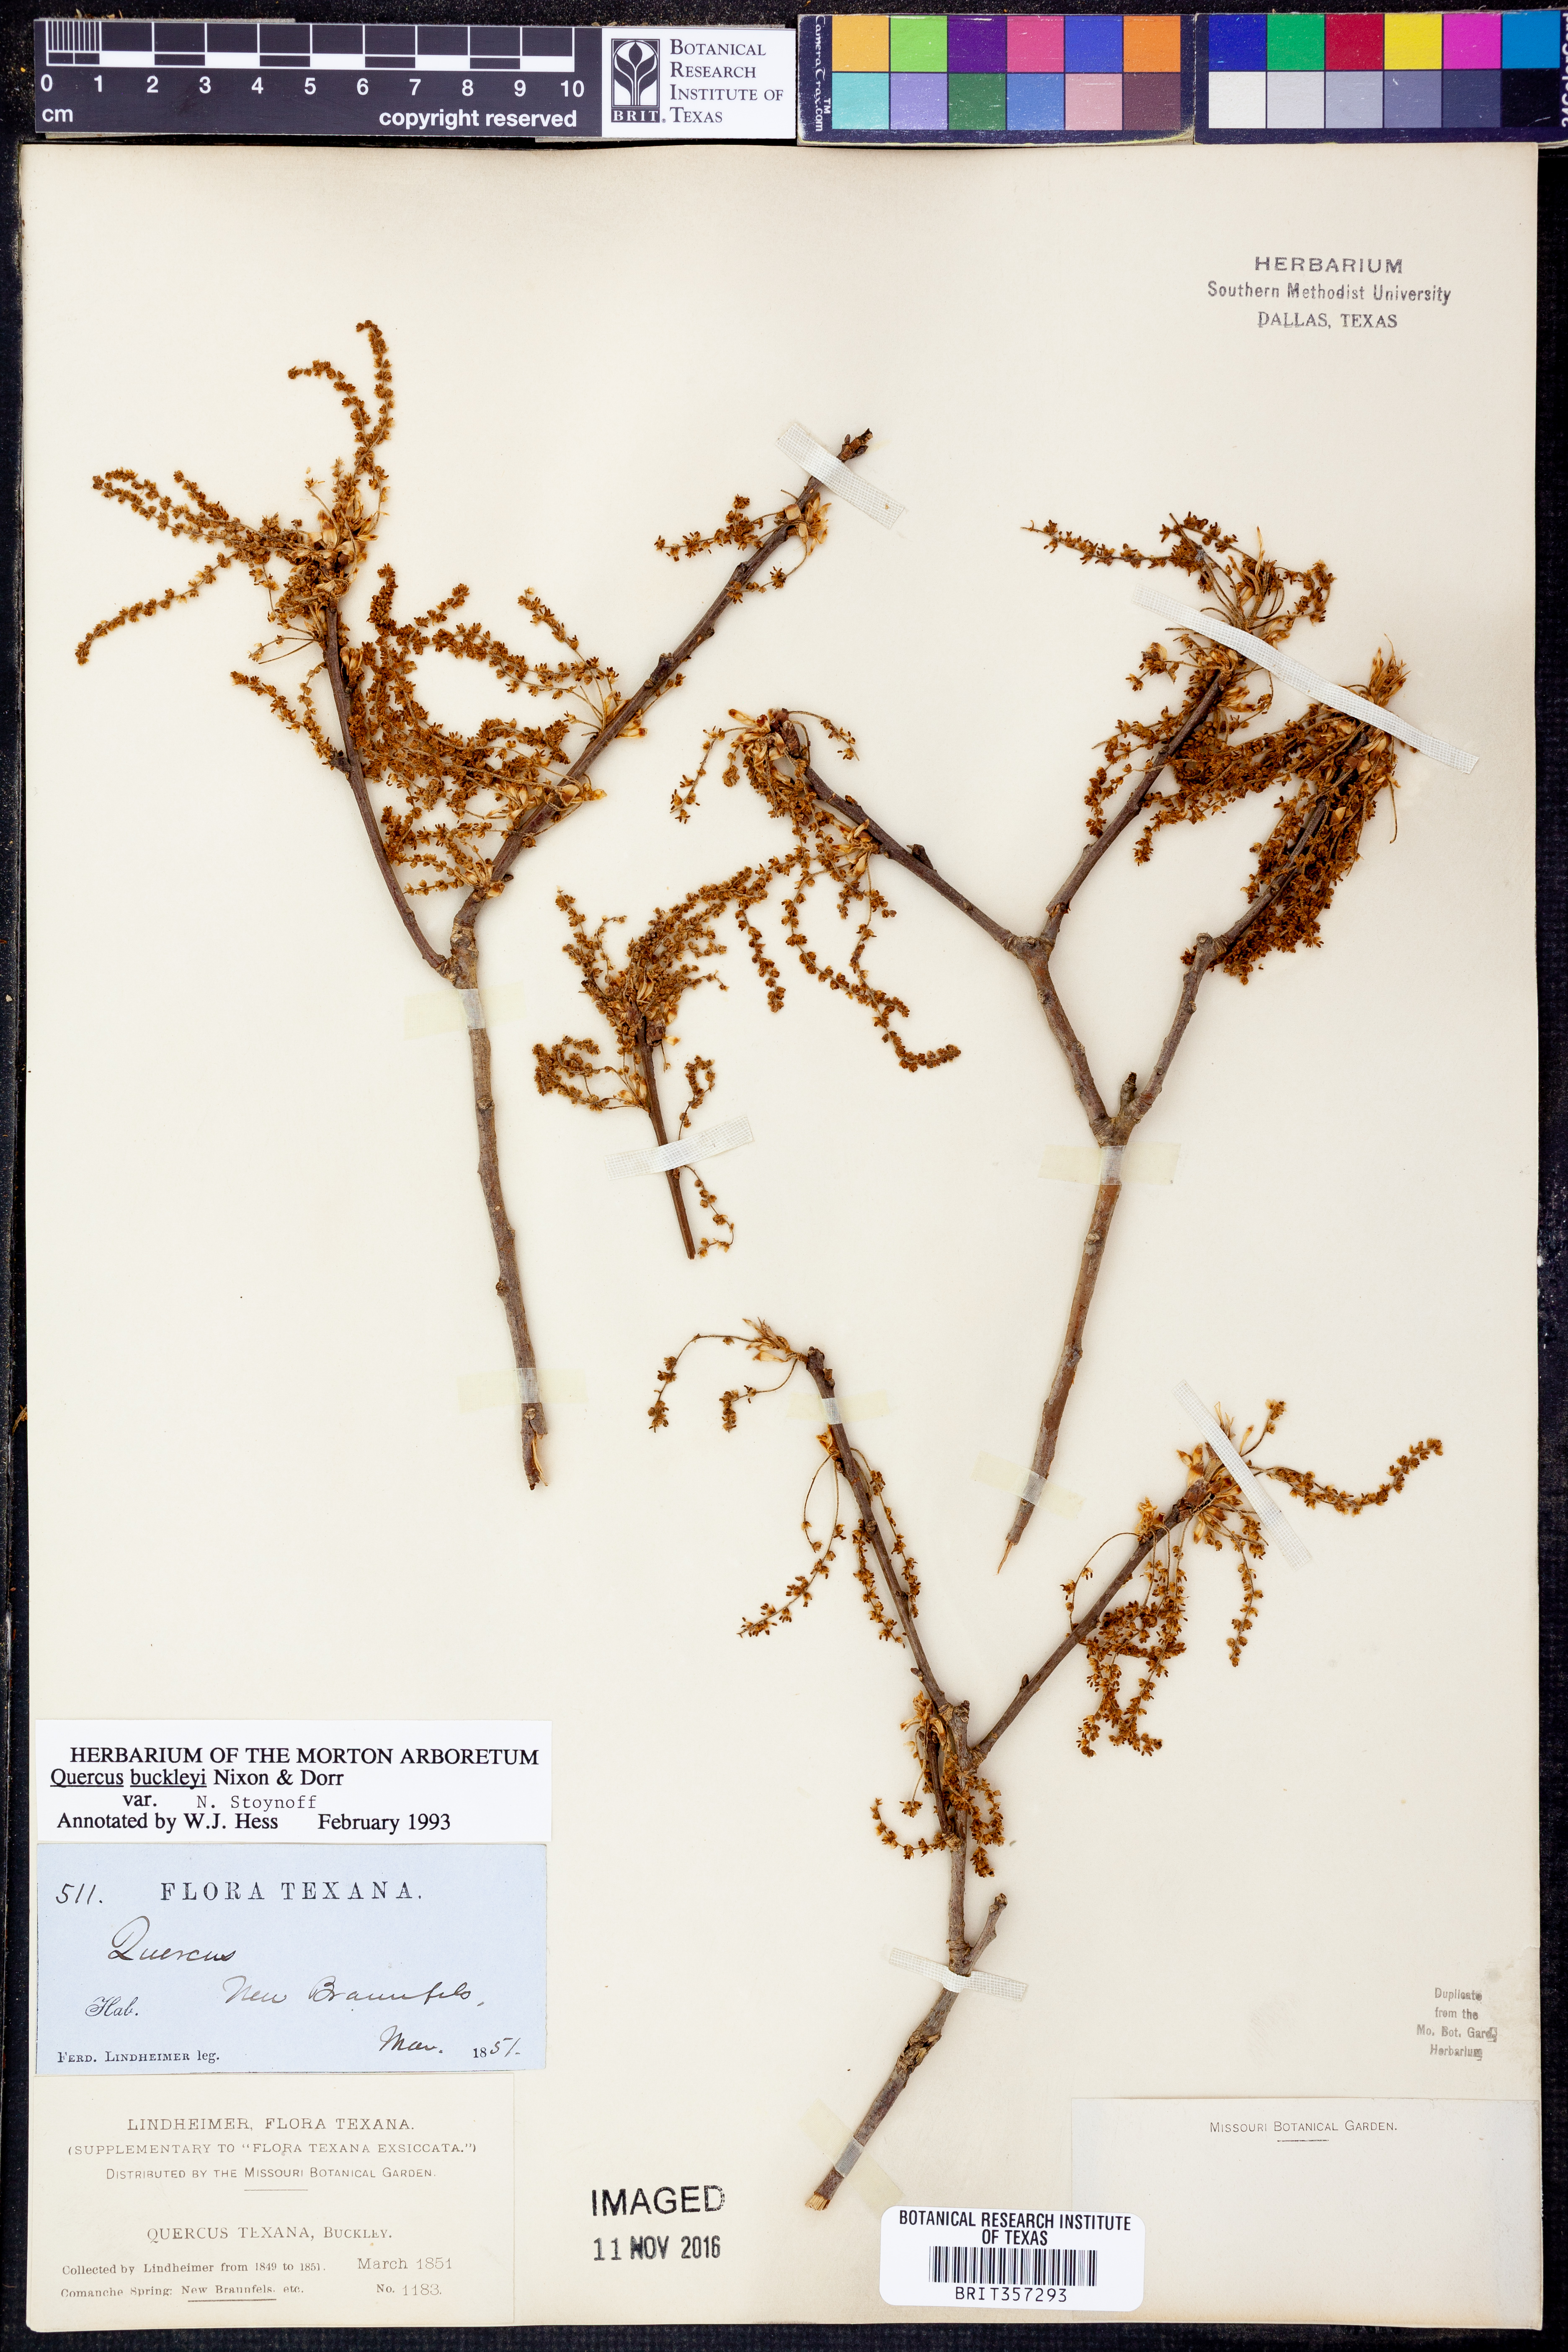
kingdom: Plantae
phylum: Tracheophyta
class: Magnoliopsida
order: Fagales
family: Fagaceae
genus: Quercus
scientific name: Quercus buckleyi
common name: Buckley oak
